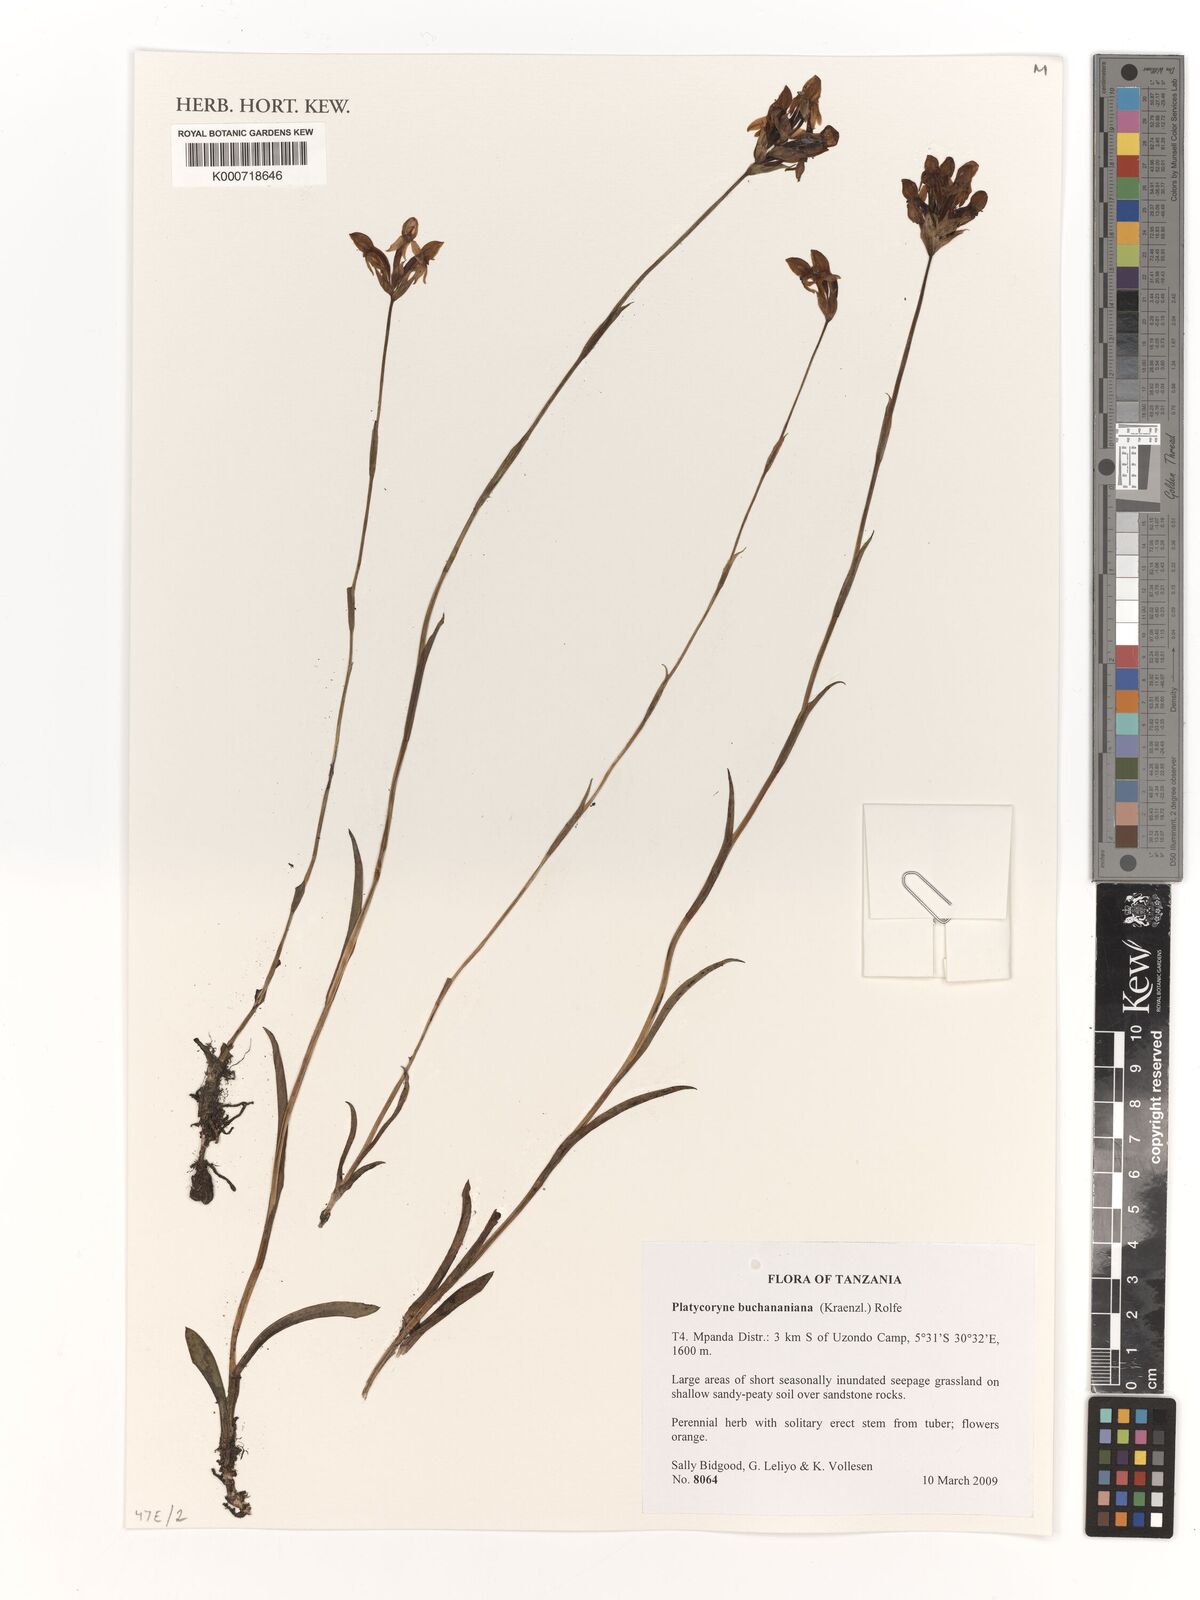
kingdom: Plantae
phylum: Tracheophyta
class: Liliopsida
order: Asparagales
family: Orchidaceae
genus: Platycoryne
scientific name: Platycoryne buchananiana
